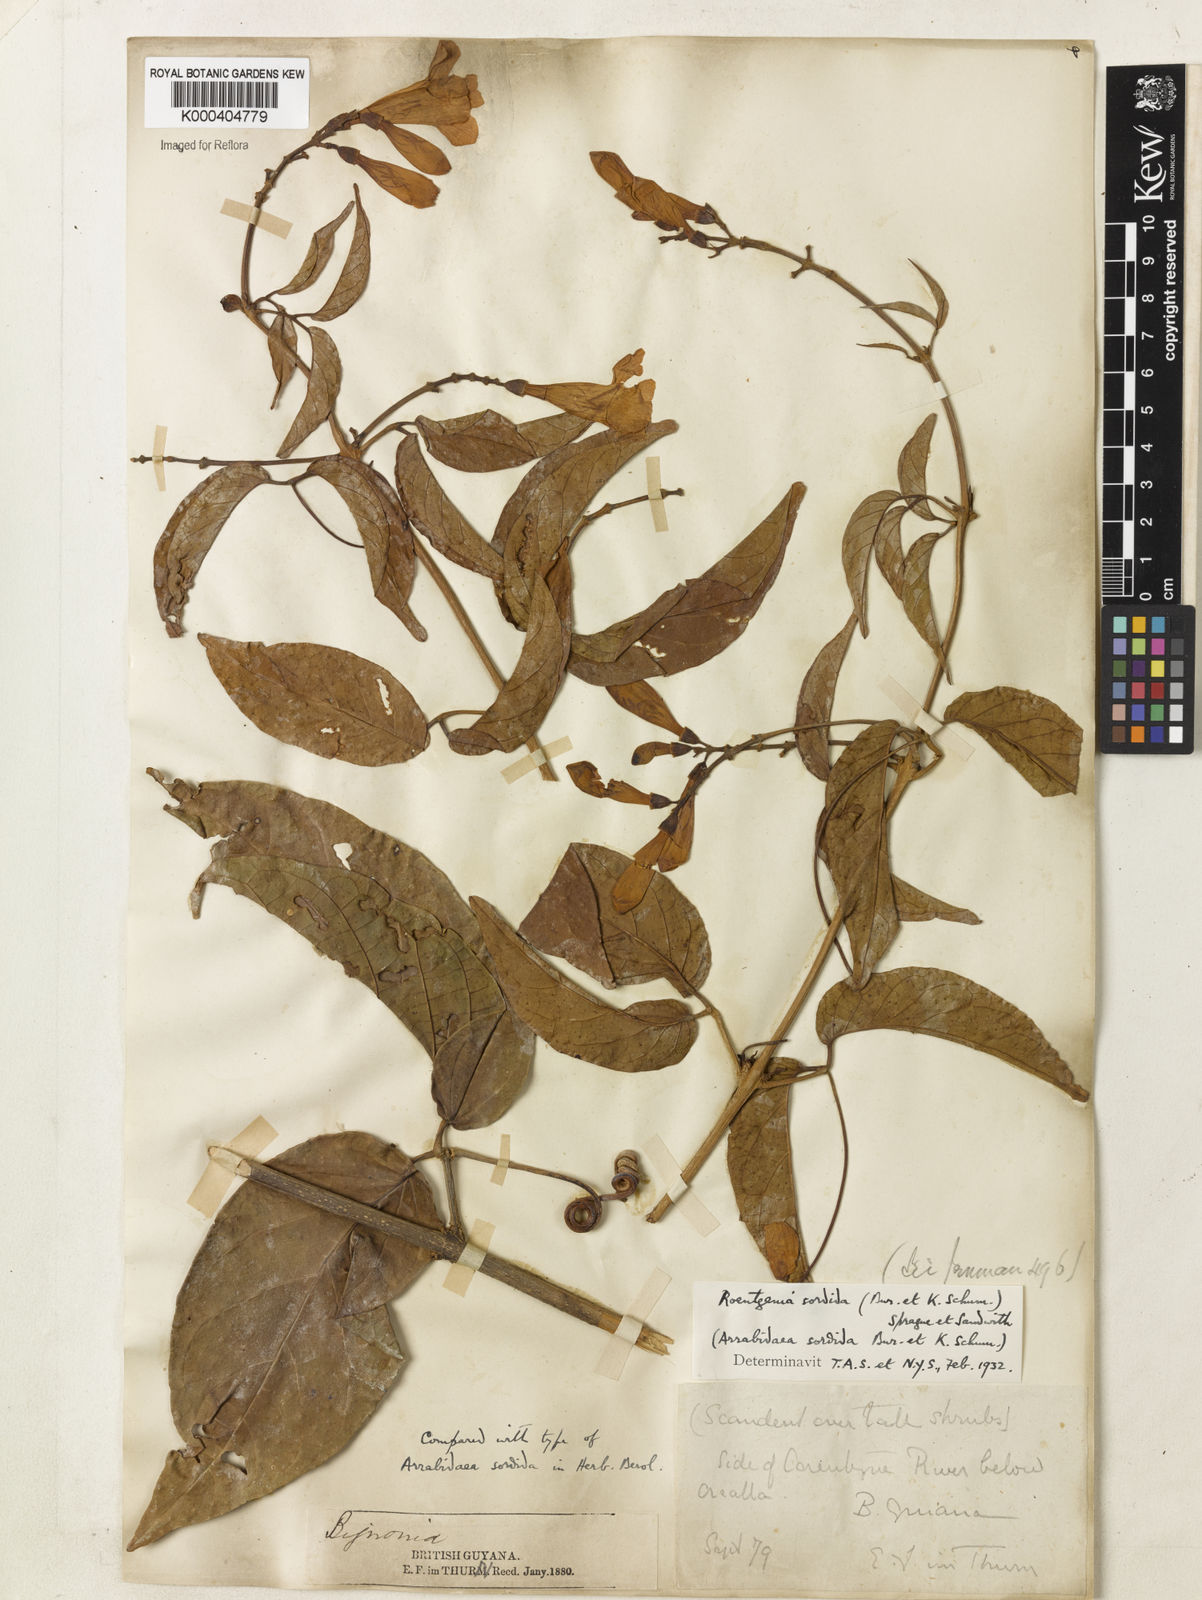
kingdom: Plantae
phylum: Tracheophyta
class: Magnoliopsida
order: Lamiales
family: Bignoniaceae
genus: Bignonia
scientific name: Bignonia sordida
